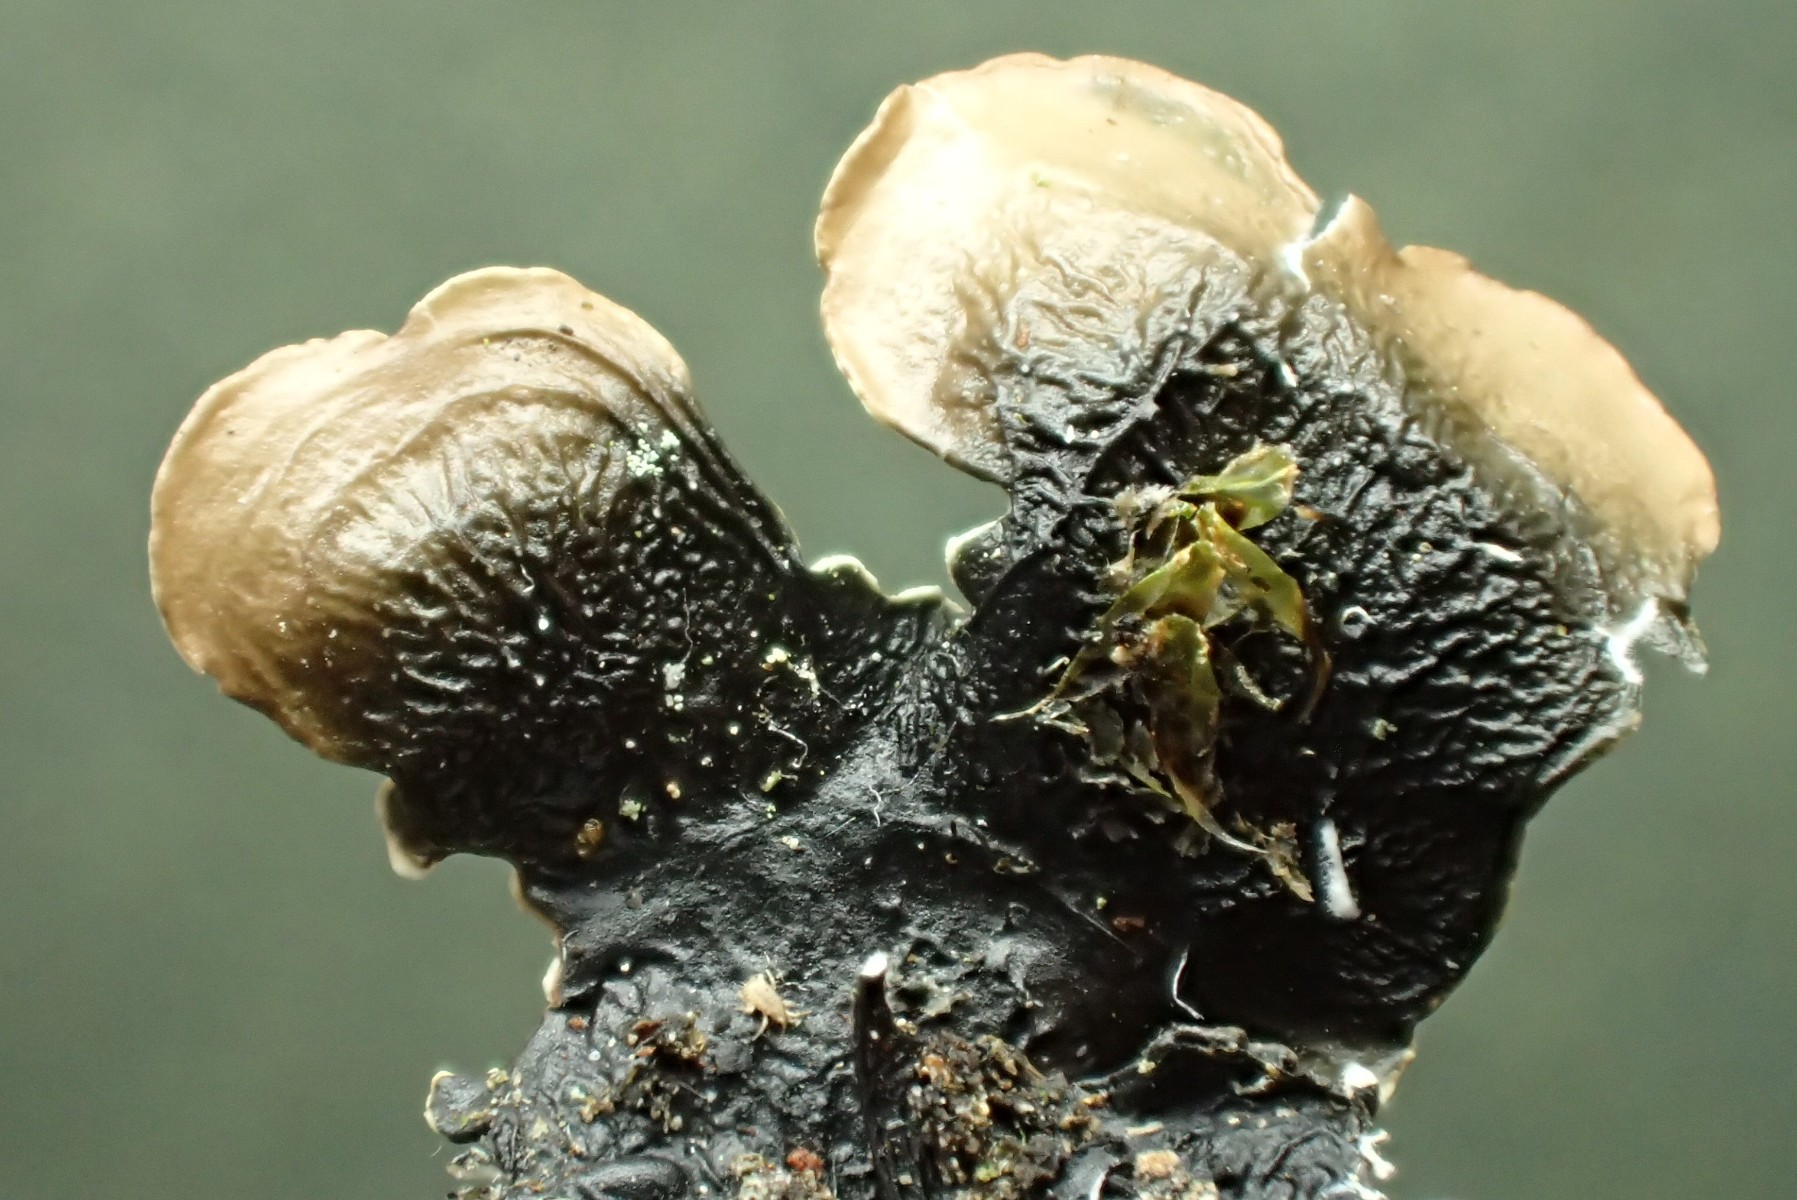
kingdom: Fungi
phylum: Ascomycota
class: Lecanoromycetes
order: Lecanorales
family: Parmeliaceae
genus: Flavoparmelia
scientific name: Flavoparmelia caperata
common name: gulgrøn skållav
